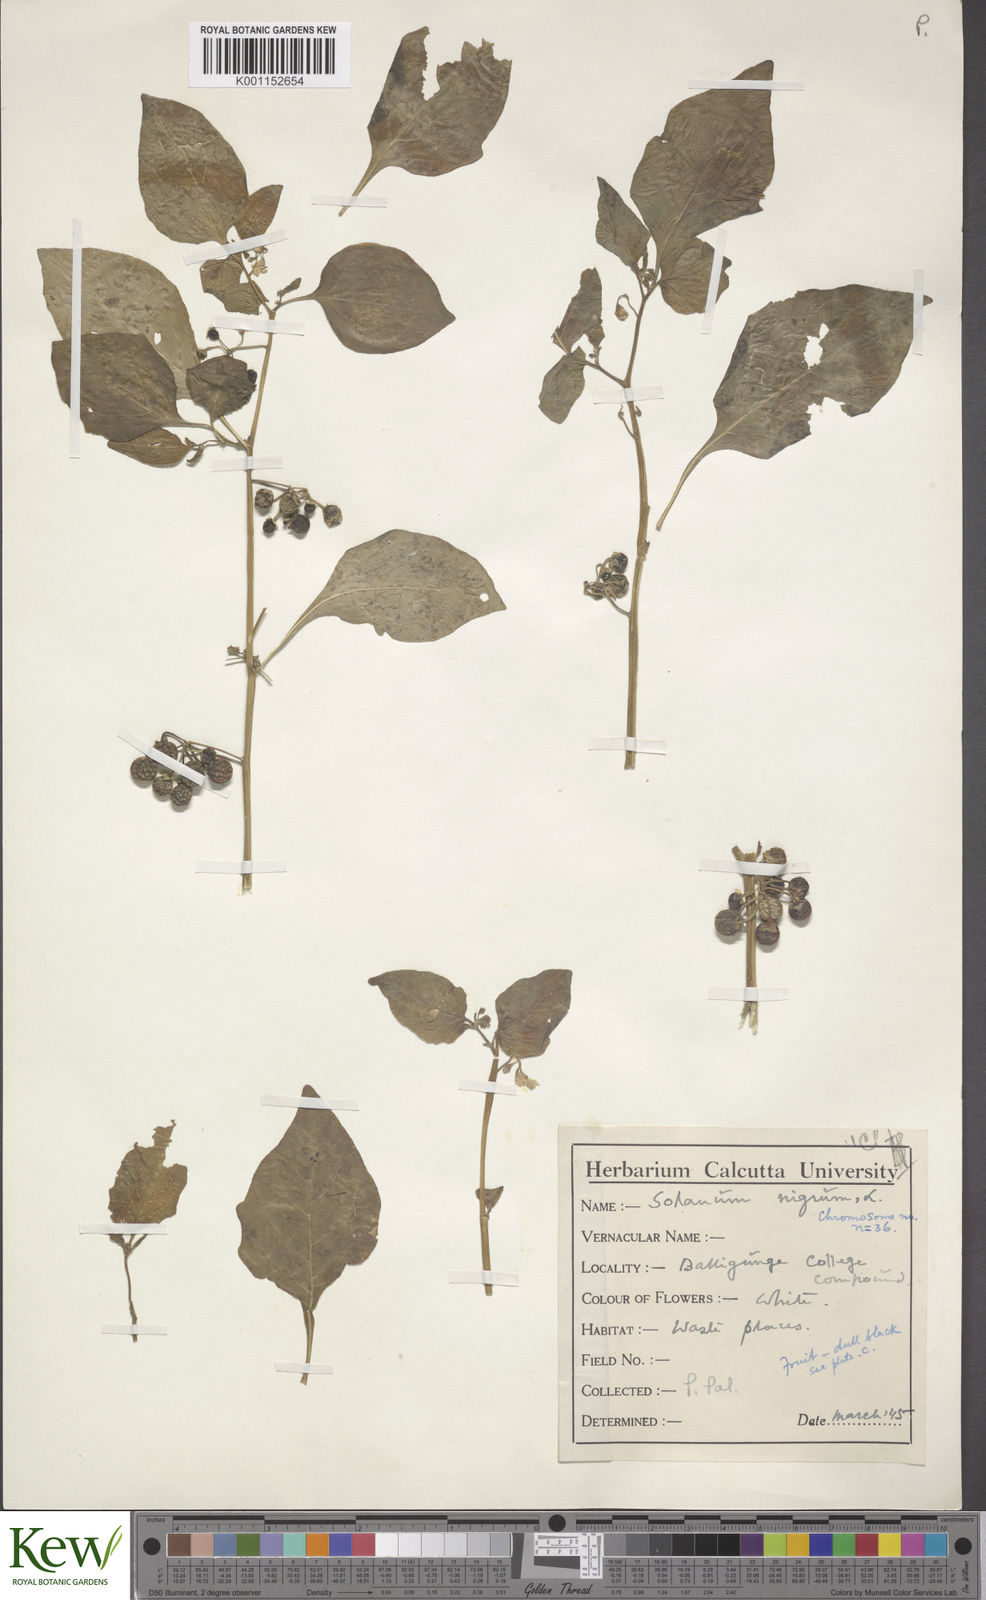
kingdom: Plantae
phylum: Tracheophyta
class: Magnoliopsida
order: Solanales
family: Solanaceae
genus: Solanum
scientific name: Solanum nigrum
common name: Black nightshade
